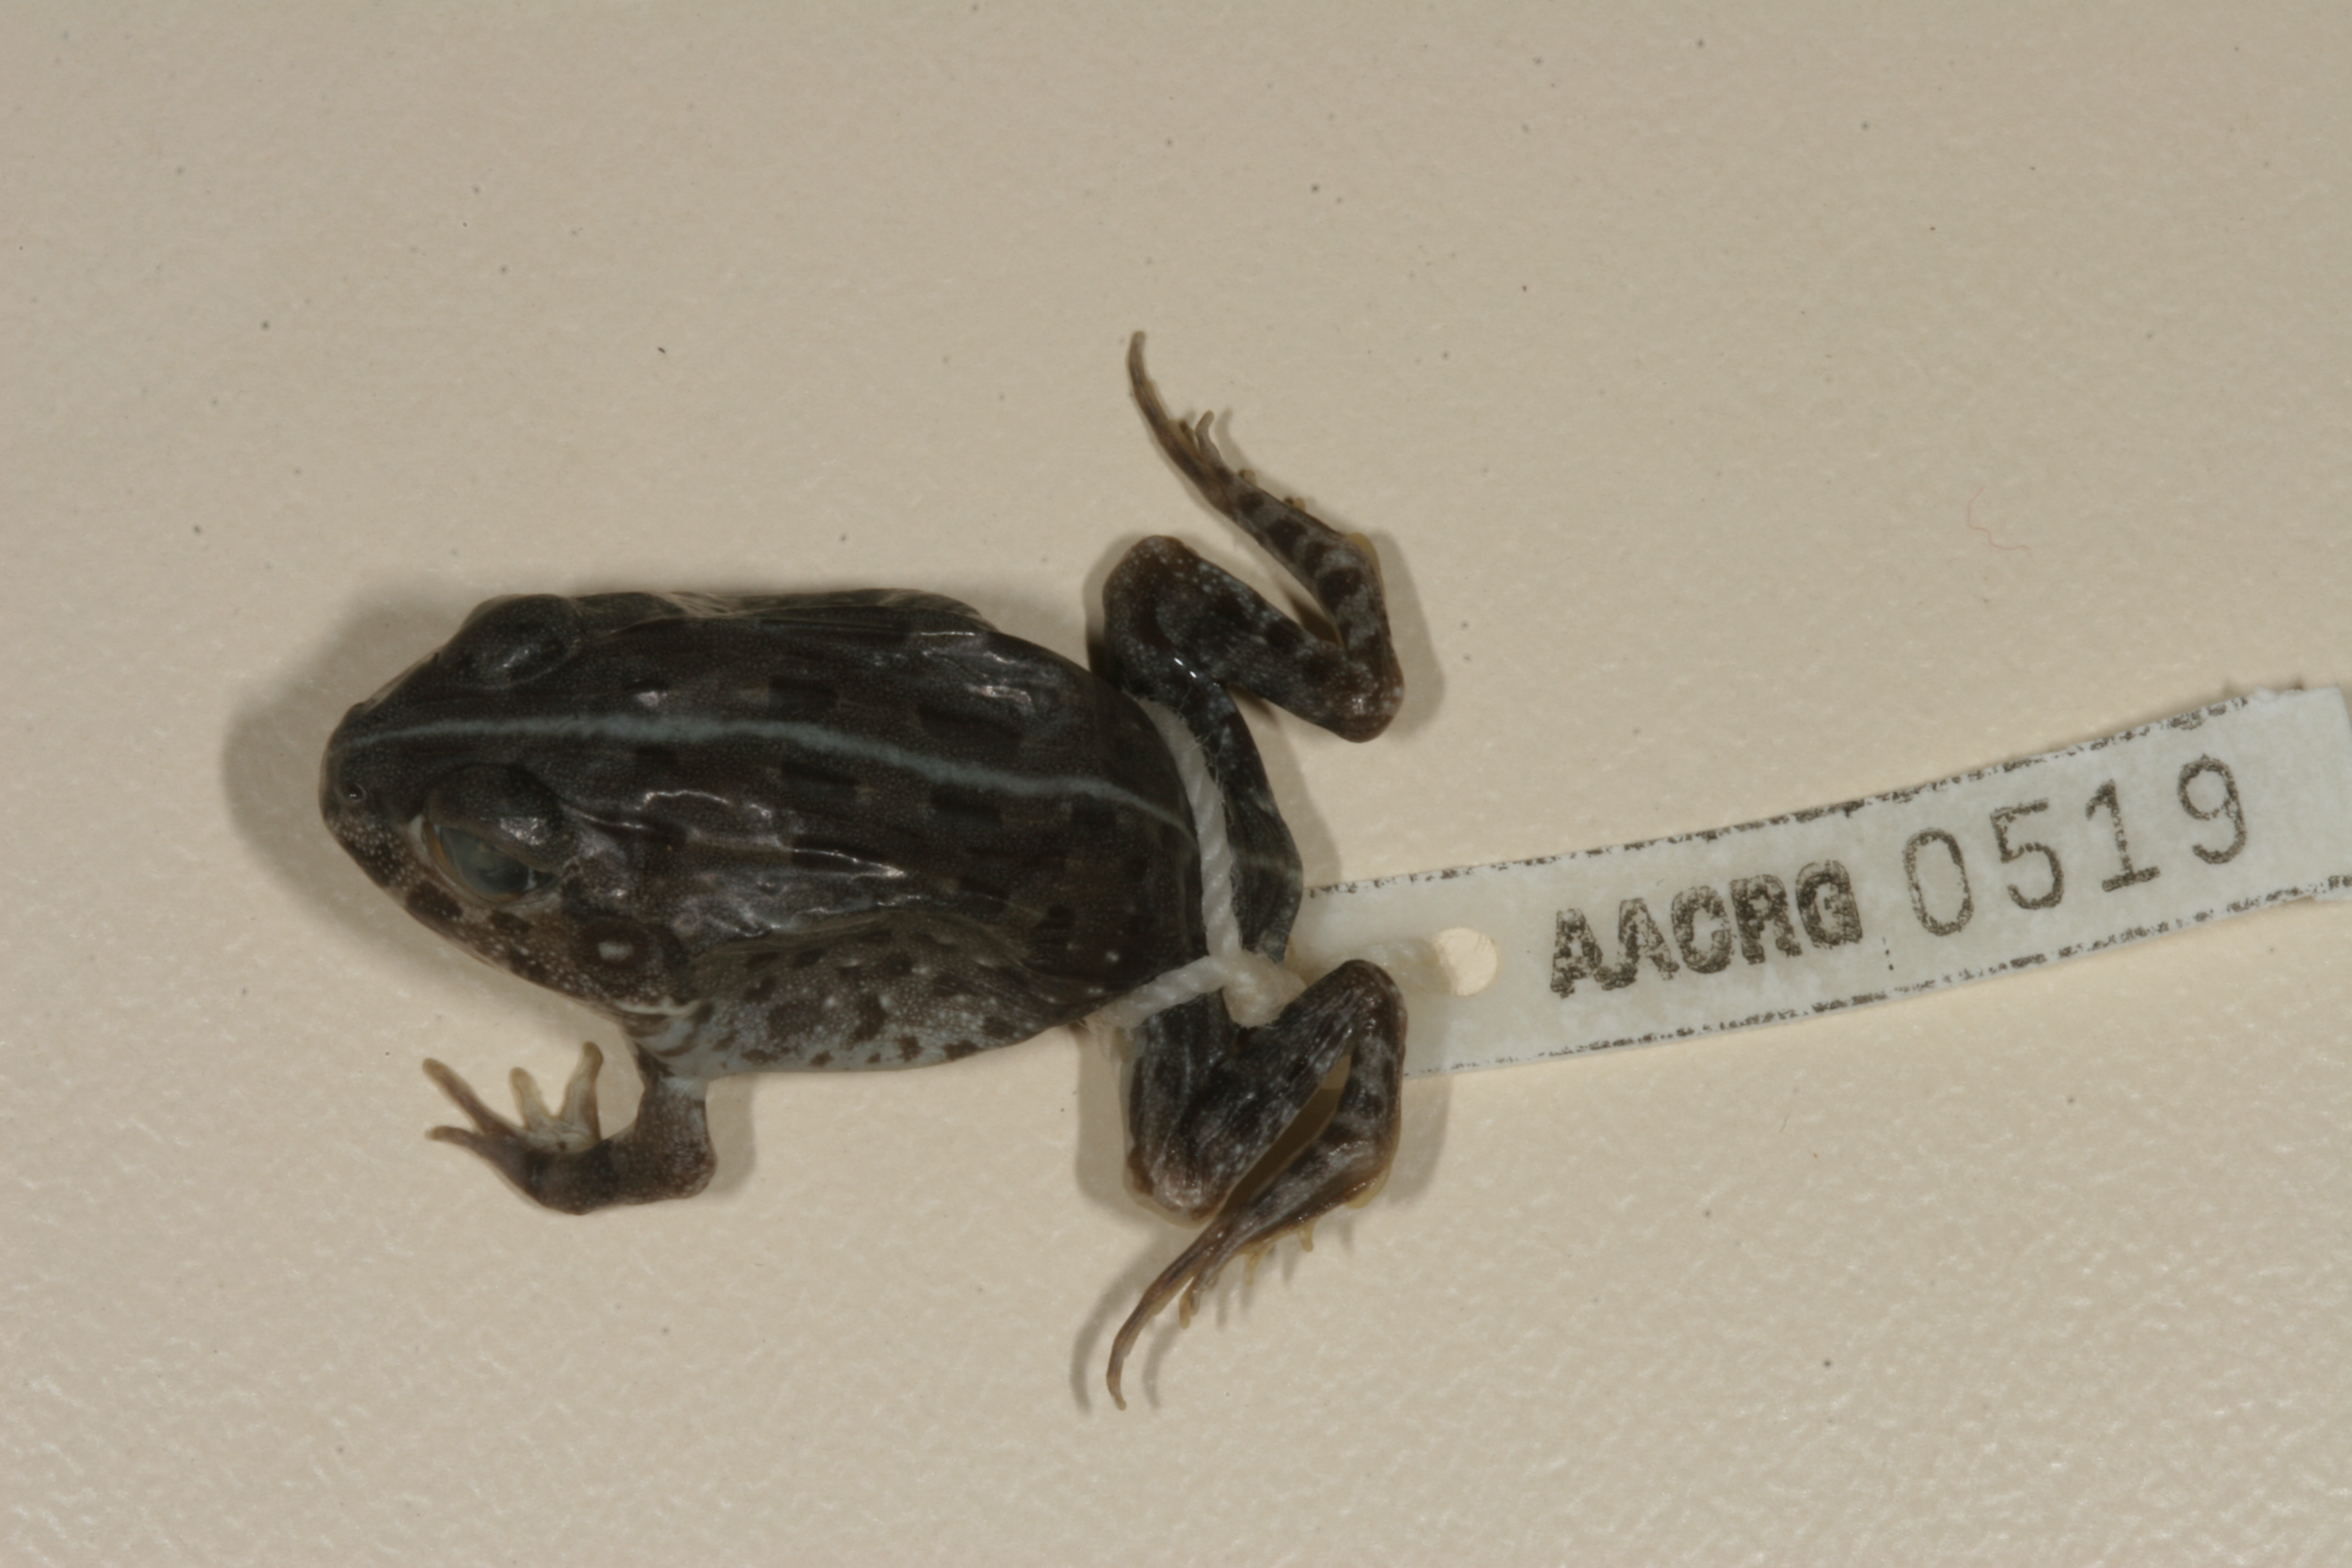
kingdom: Animalia
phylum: Chordata
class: Amphibia
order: Anura
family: Pyxicephalidae
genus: Pyxicephalus
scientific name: Pyxicephalus edulis
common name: Peter's bullfrog
